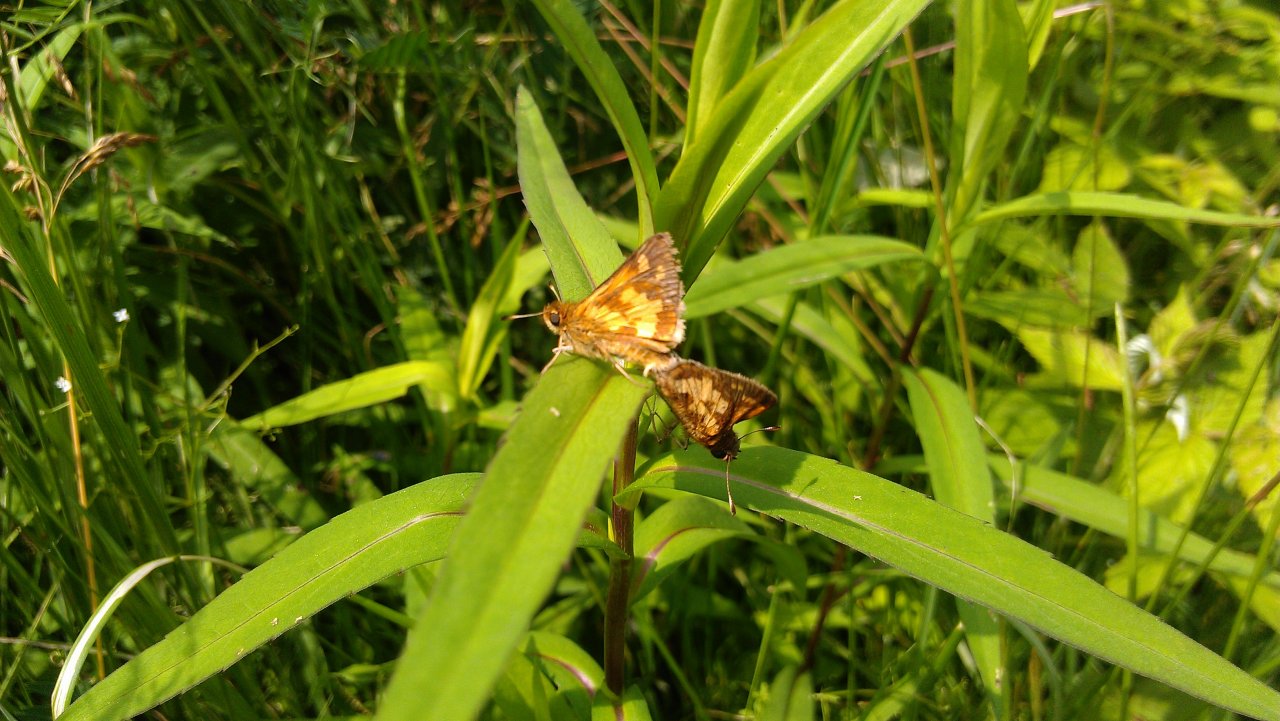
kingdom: Animalia
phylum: Arthropoda
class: Insecta
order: Lepidoptera
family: Hesperiidae
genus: Polites
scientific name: Polites coras
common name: Peck's Skipper
